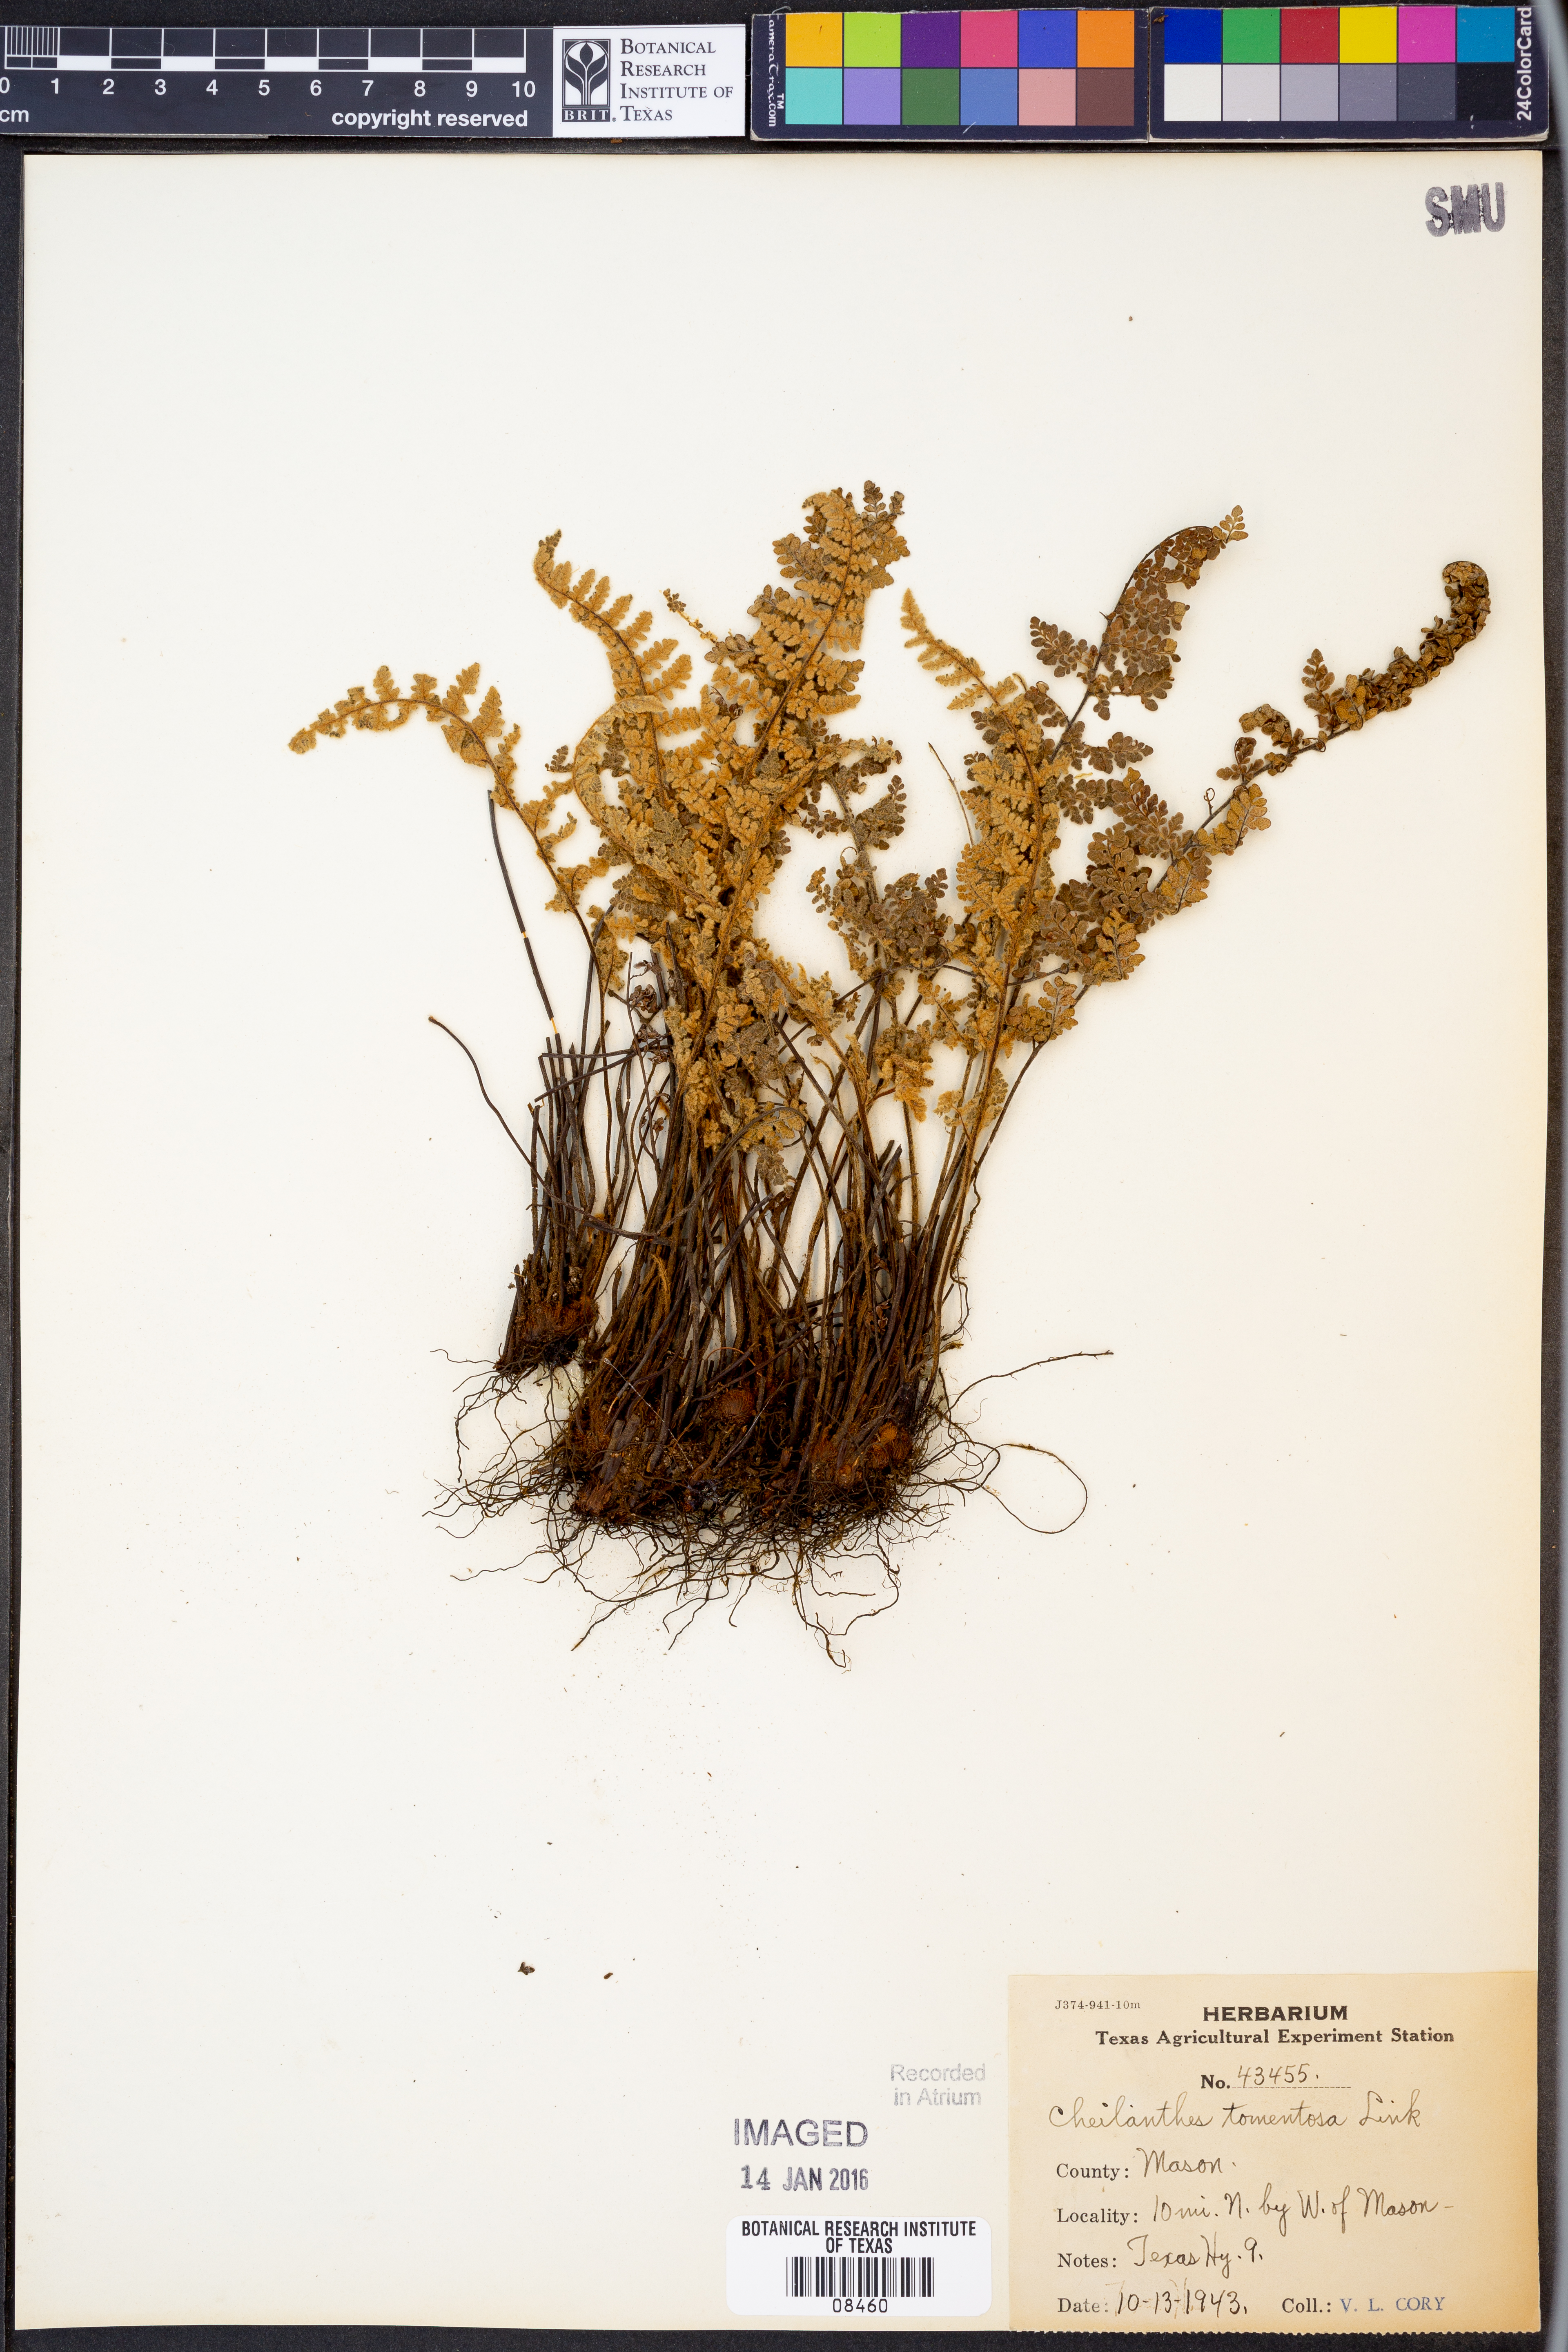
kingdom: Plantae
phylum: Tracheophyta
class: Polypodiopsida
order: Polypodiales
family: Pteridaceae
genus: Myriopteris
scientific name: Myriopteris tomentosa
